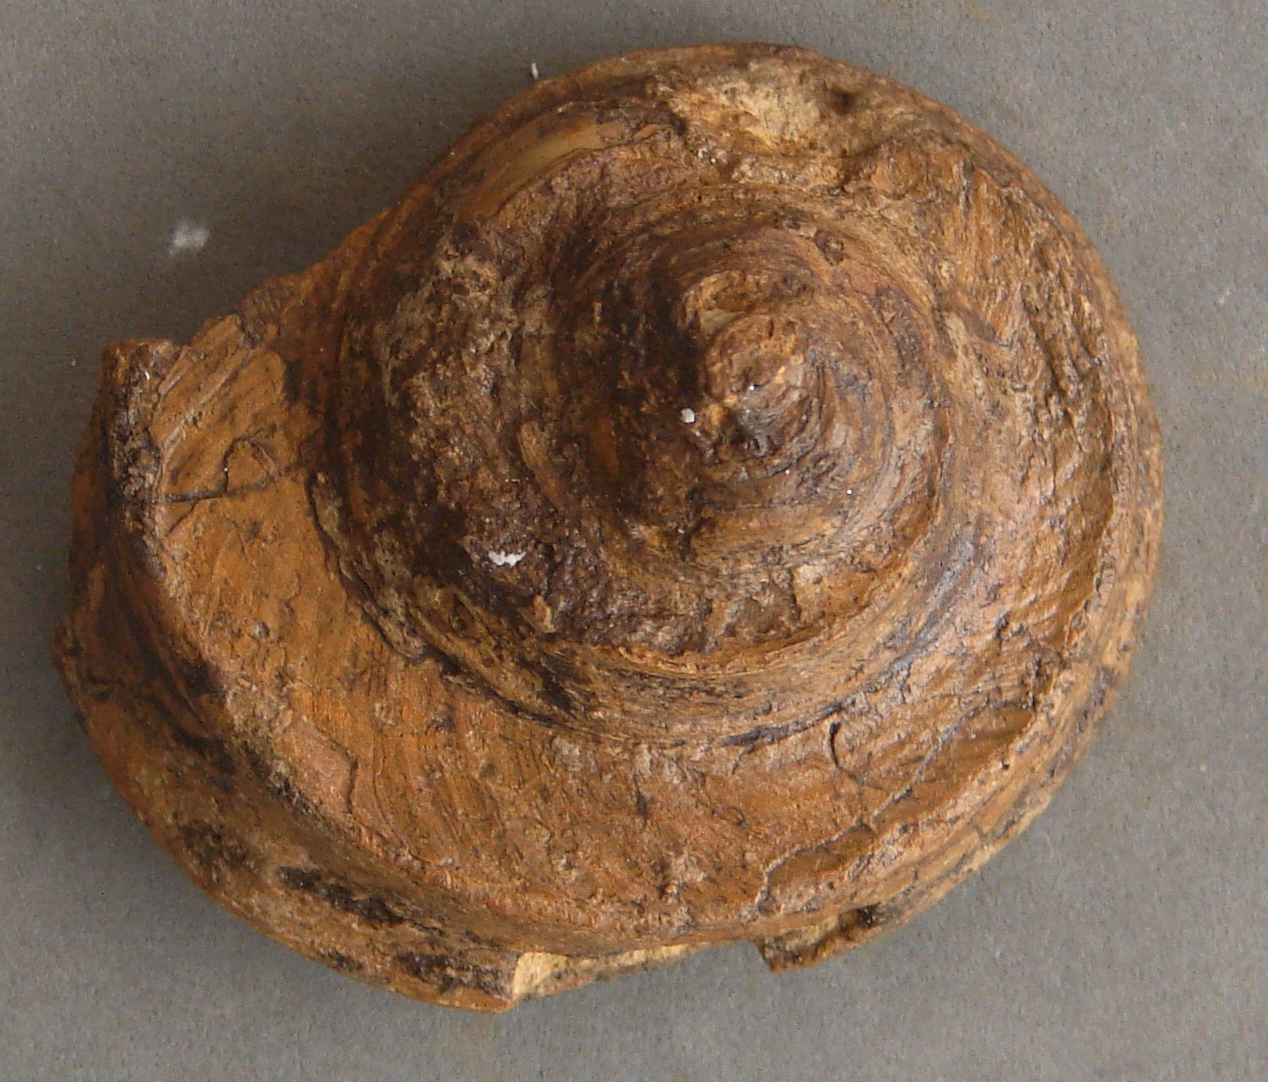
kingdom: Animalia
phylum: Mollusca
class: Gastropoda
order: Pleurotomariida
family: Trochotomidae
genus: Trochotoma
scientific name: Trochotoma affinis
